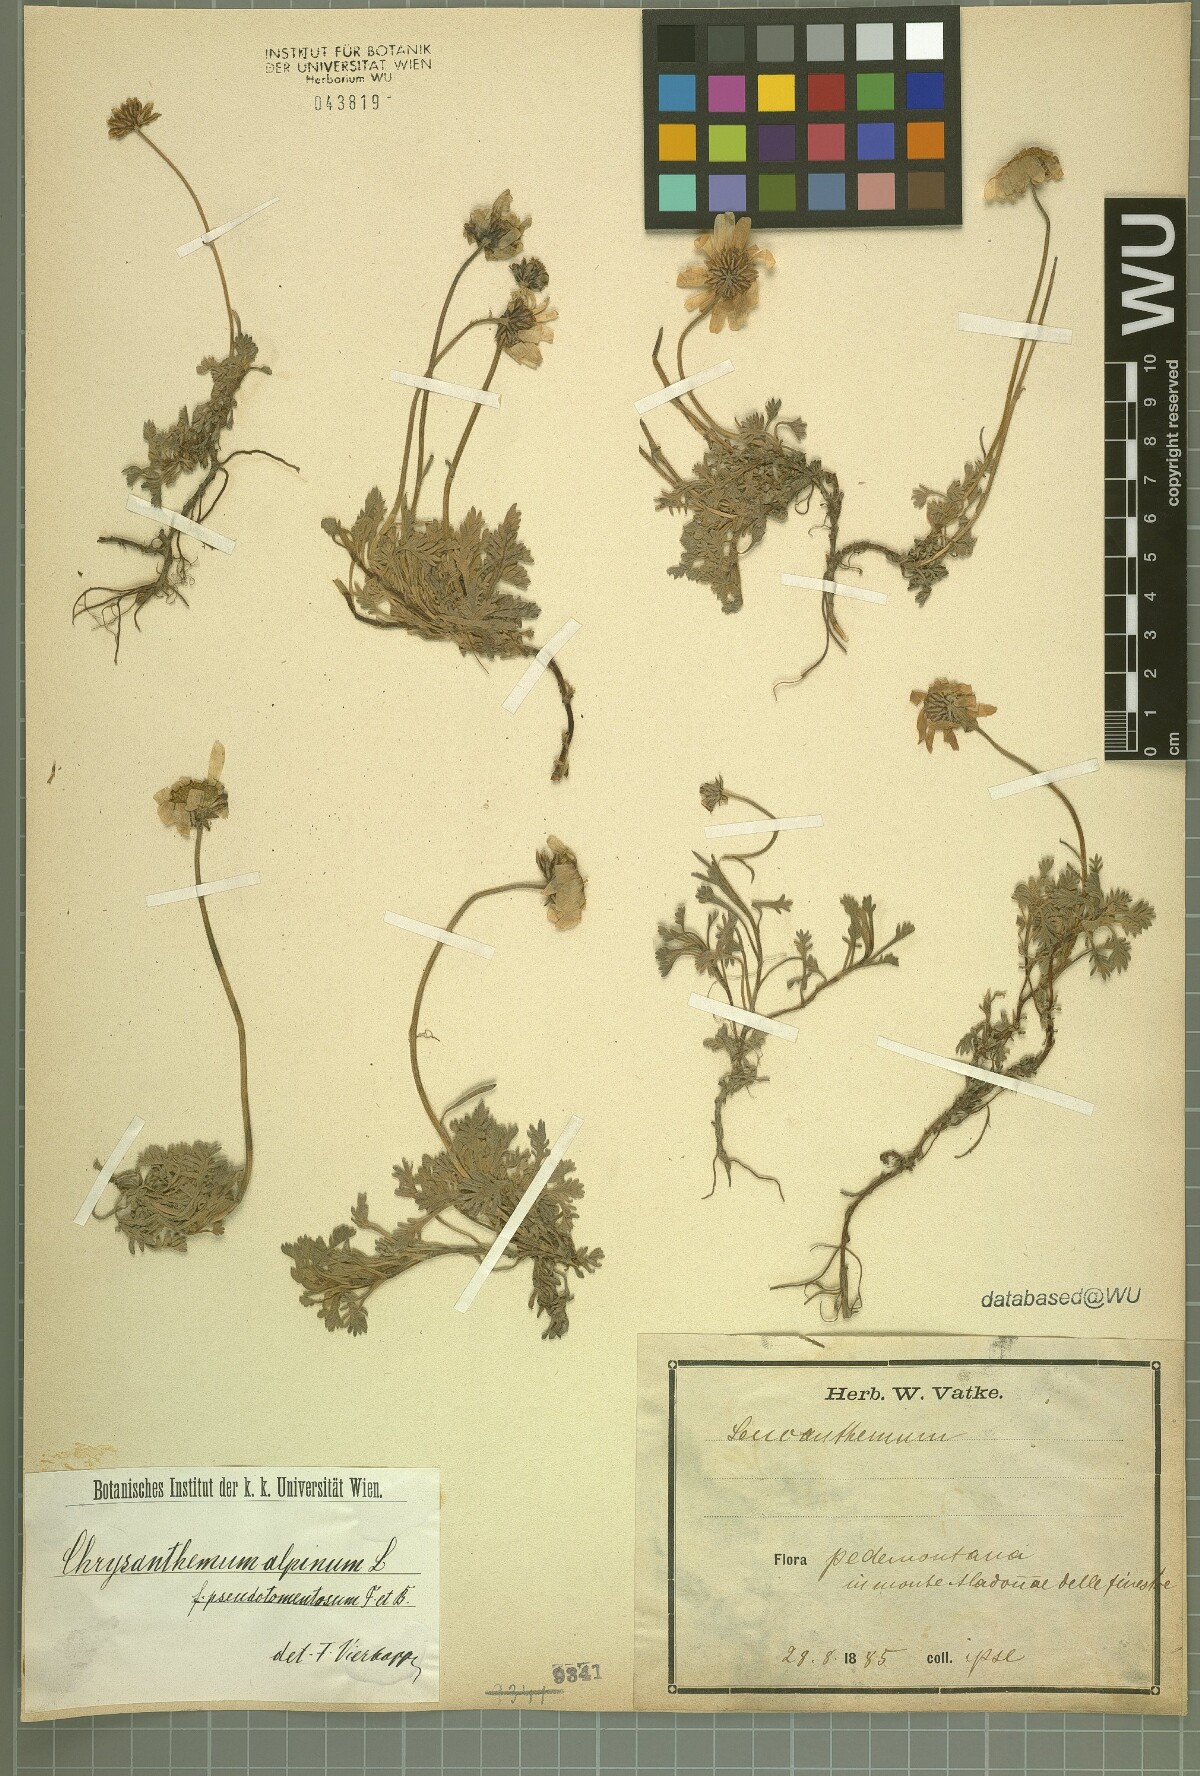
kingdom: Plantae
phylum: Tracheophyta
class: Magnoliopsida
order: Asterales
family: Asteraceae
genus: Leucanthemopsis
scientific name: Leucanthemopsis alpina
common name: Alpine moon daisy
